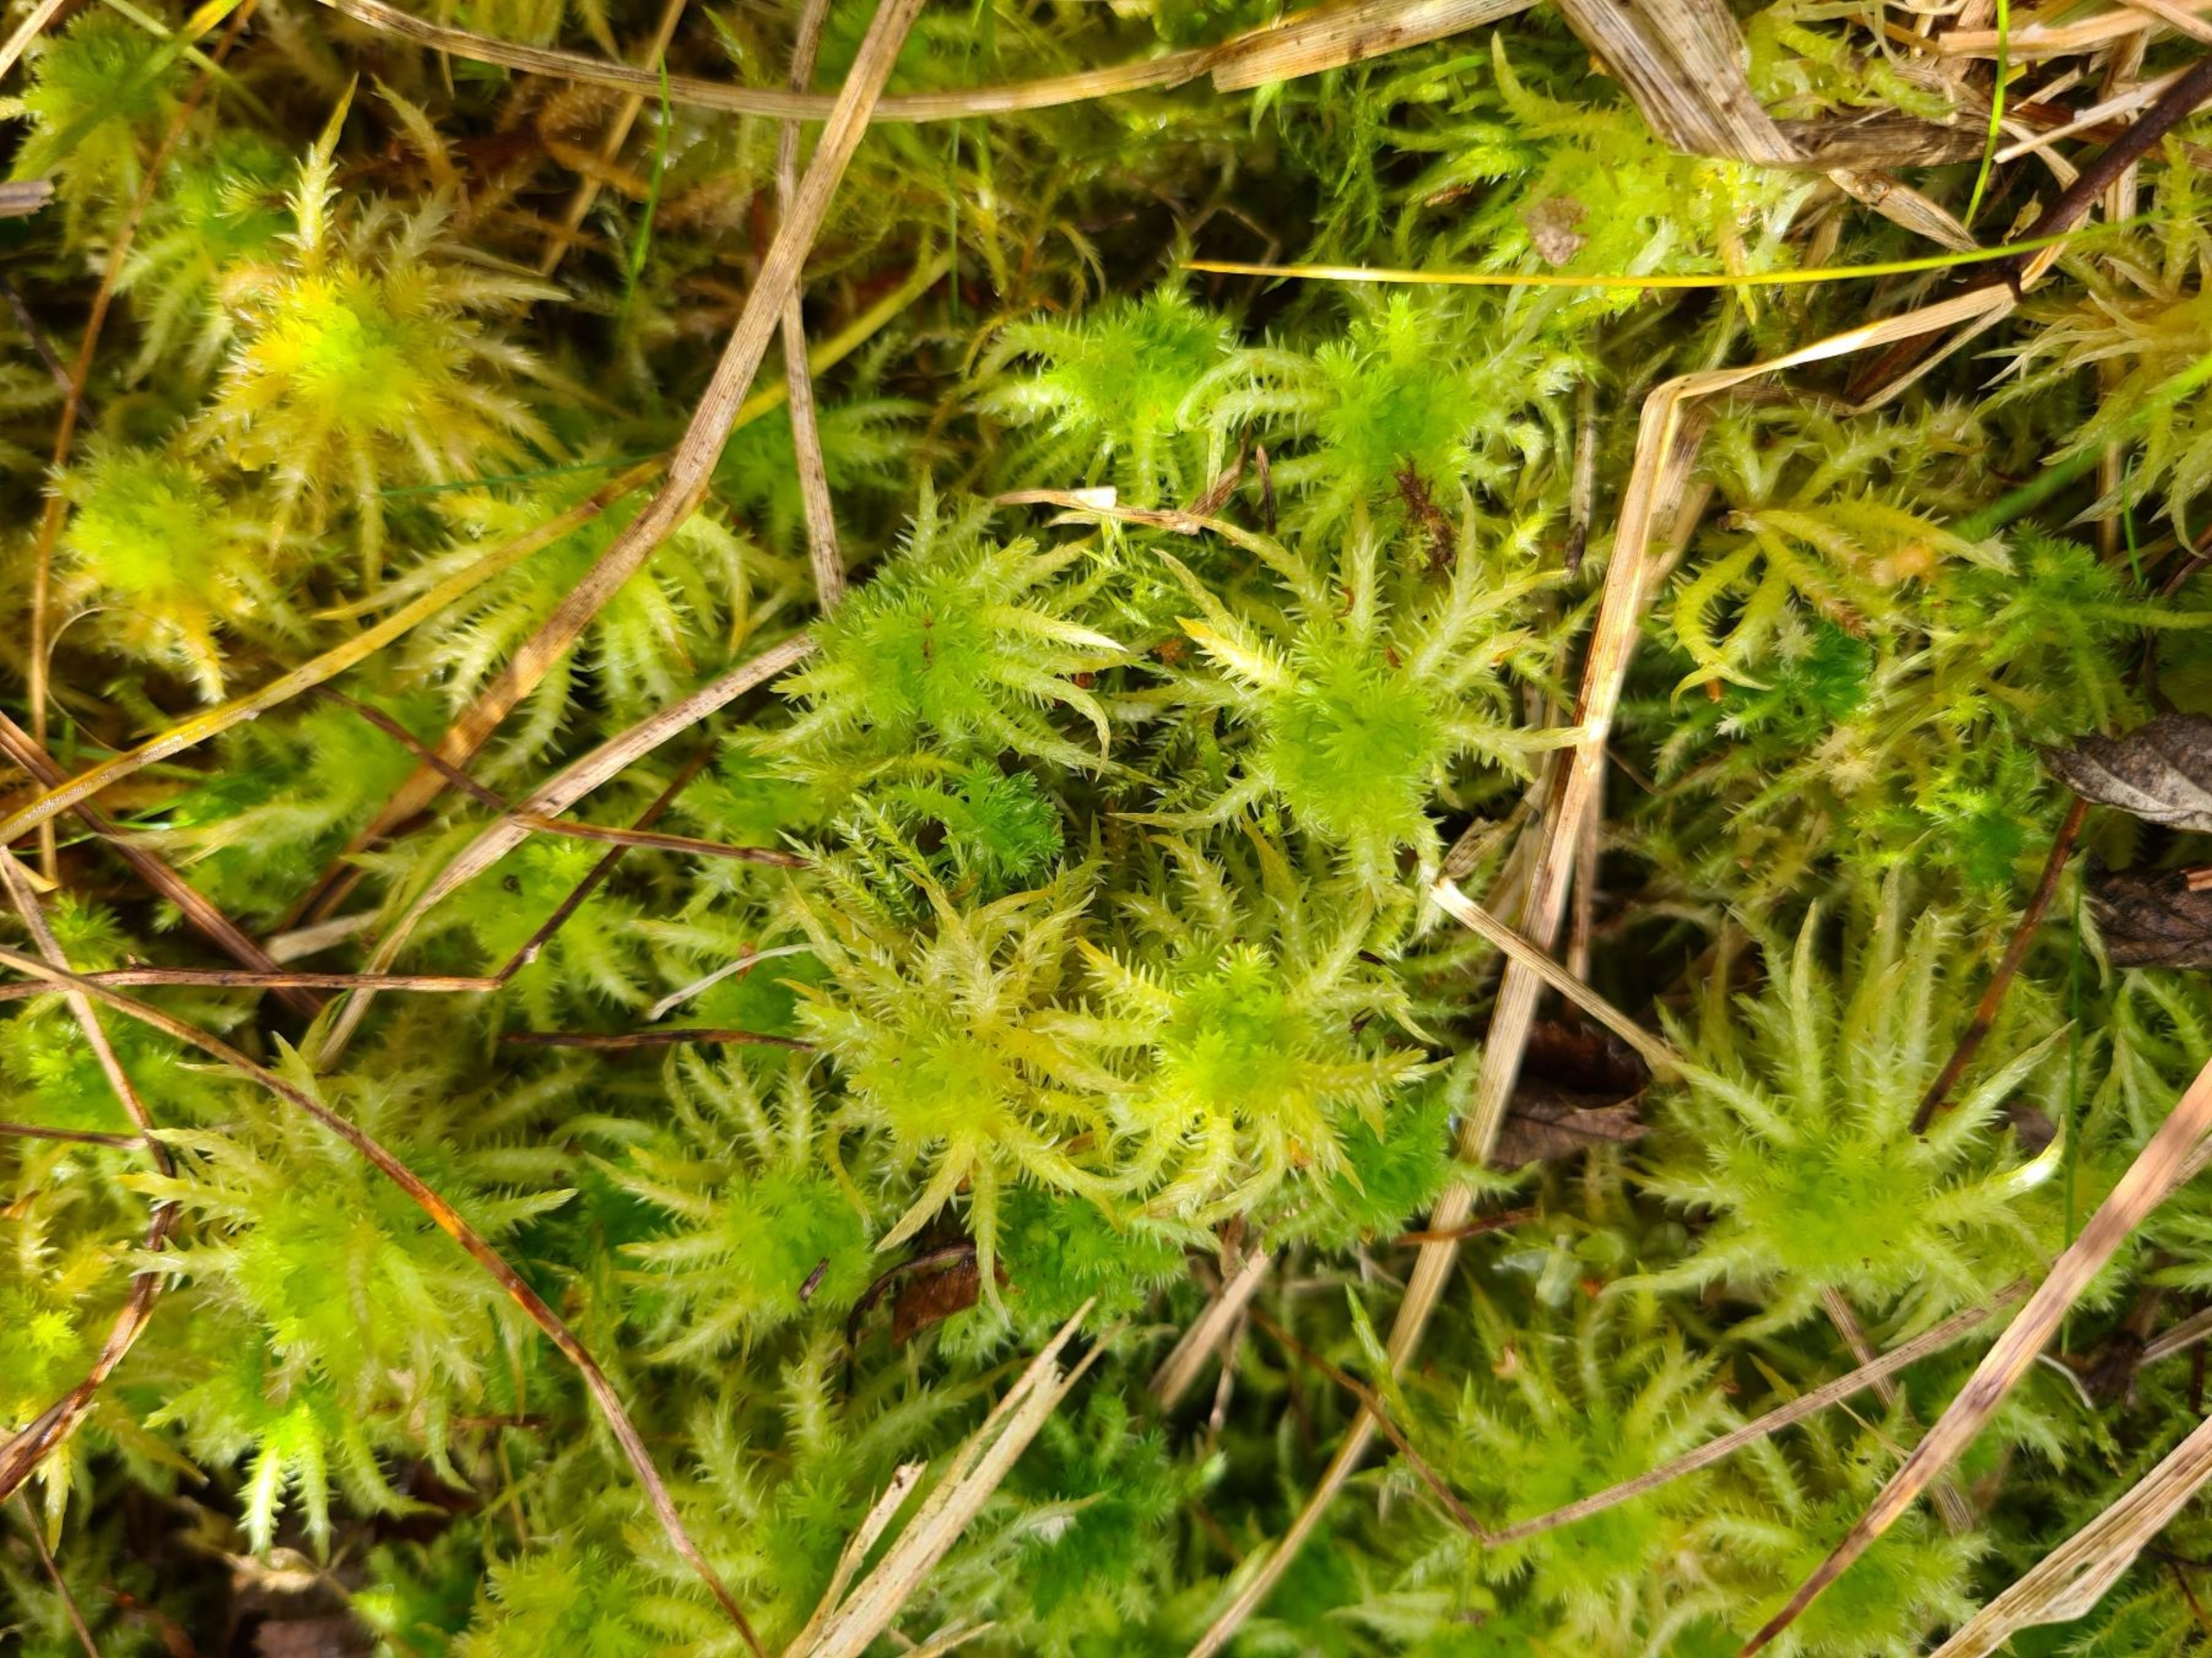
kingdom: Plantae
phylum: Bryophyta
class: Sphagnopsida
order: Sphagnales
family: Sphagnaceae
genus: Sphagnum
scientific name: Sphagnum squarrosum
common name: Udspærret tørvemos
